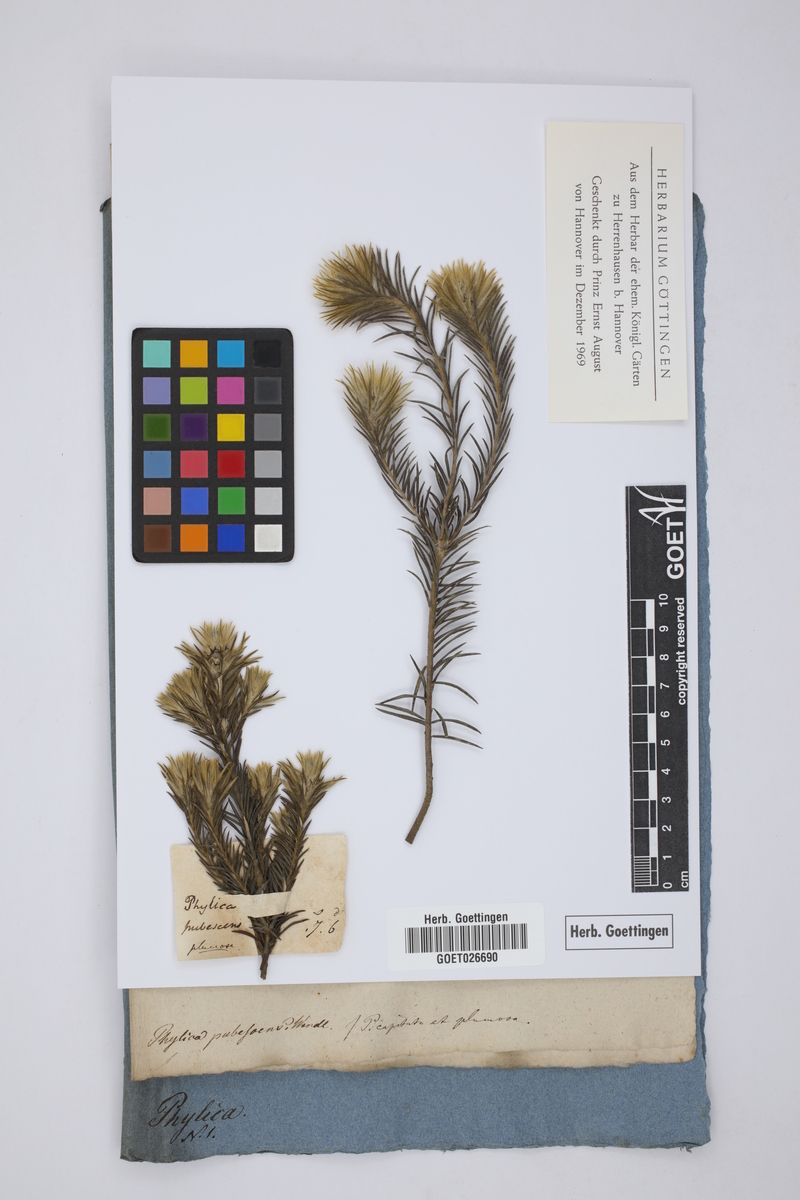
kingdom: Plantae
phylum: Tracheophyta
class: Magnoliopsida
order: Rosales
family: Rhamnaceae
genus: Phylica
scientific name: Phylica pubescens
